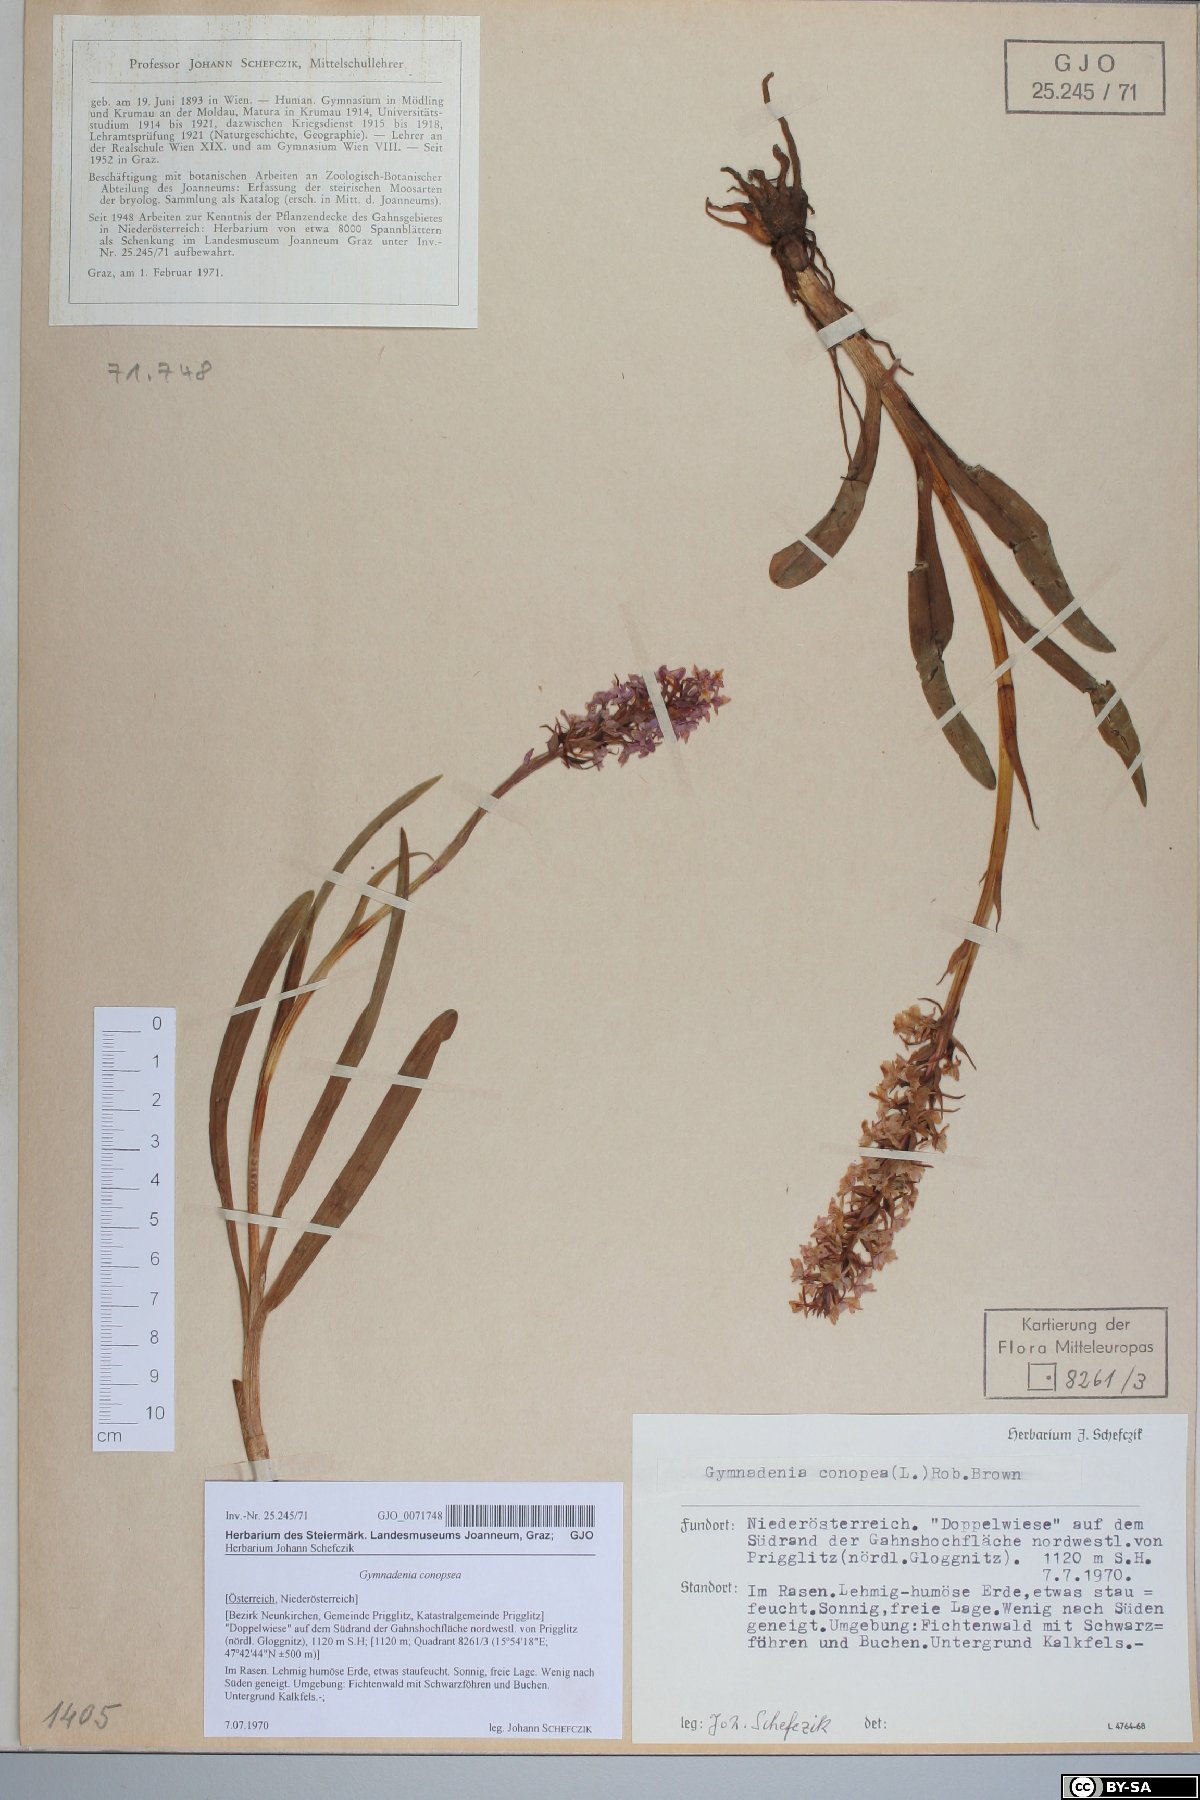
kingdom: Plantae
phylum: Tracheophyta
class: Liliopsida
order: Asparagales
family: Orchidaceae
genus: Gymnadenia
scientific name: Gymnadenia conopsea
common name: Fragrant orchid
